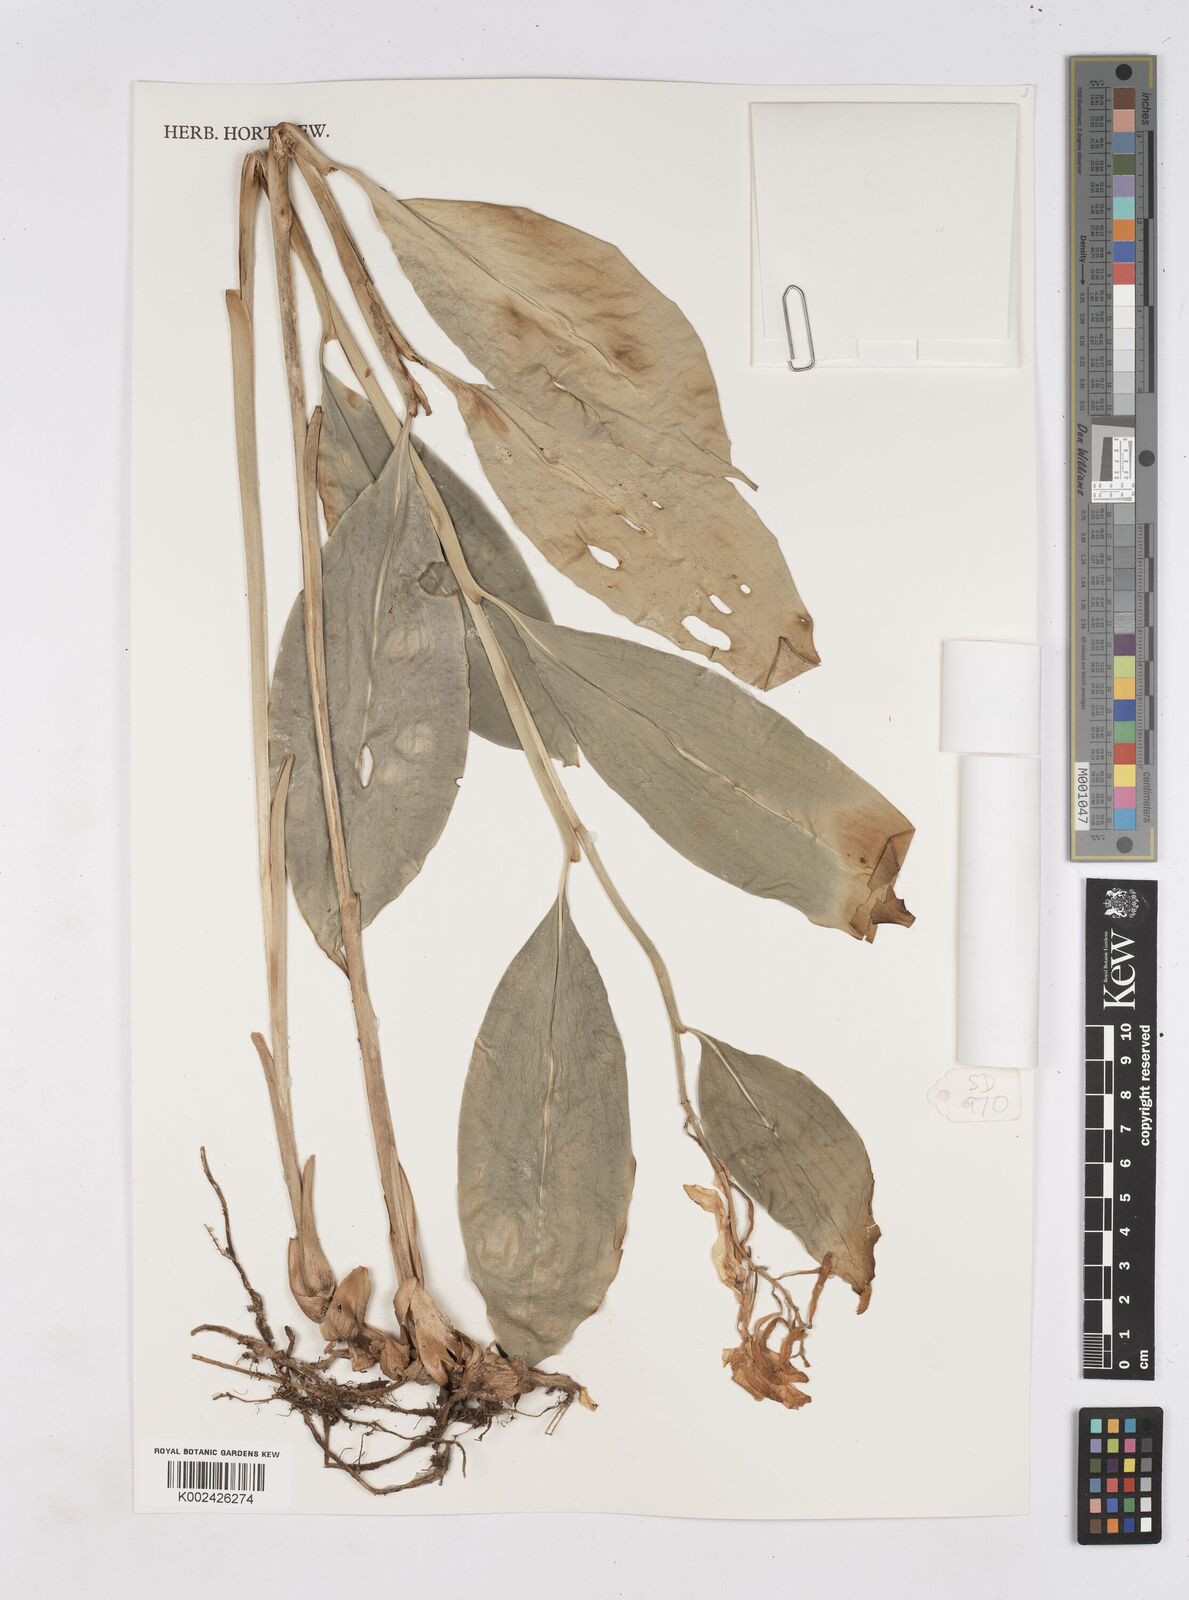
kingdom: Plantae
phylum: Tracheophyta
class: Liliopsida
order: Zingiberales
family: Zingiberaceae
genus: Burbidgea
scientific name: Burbidgea nitida
